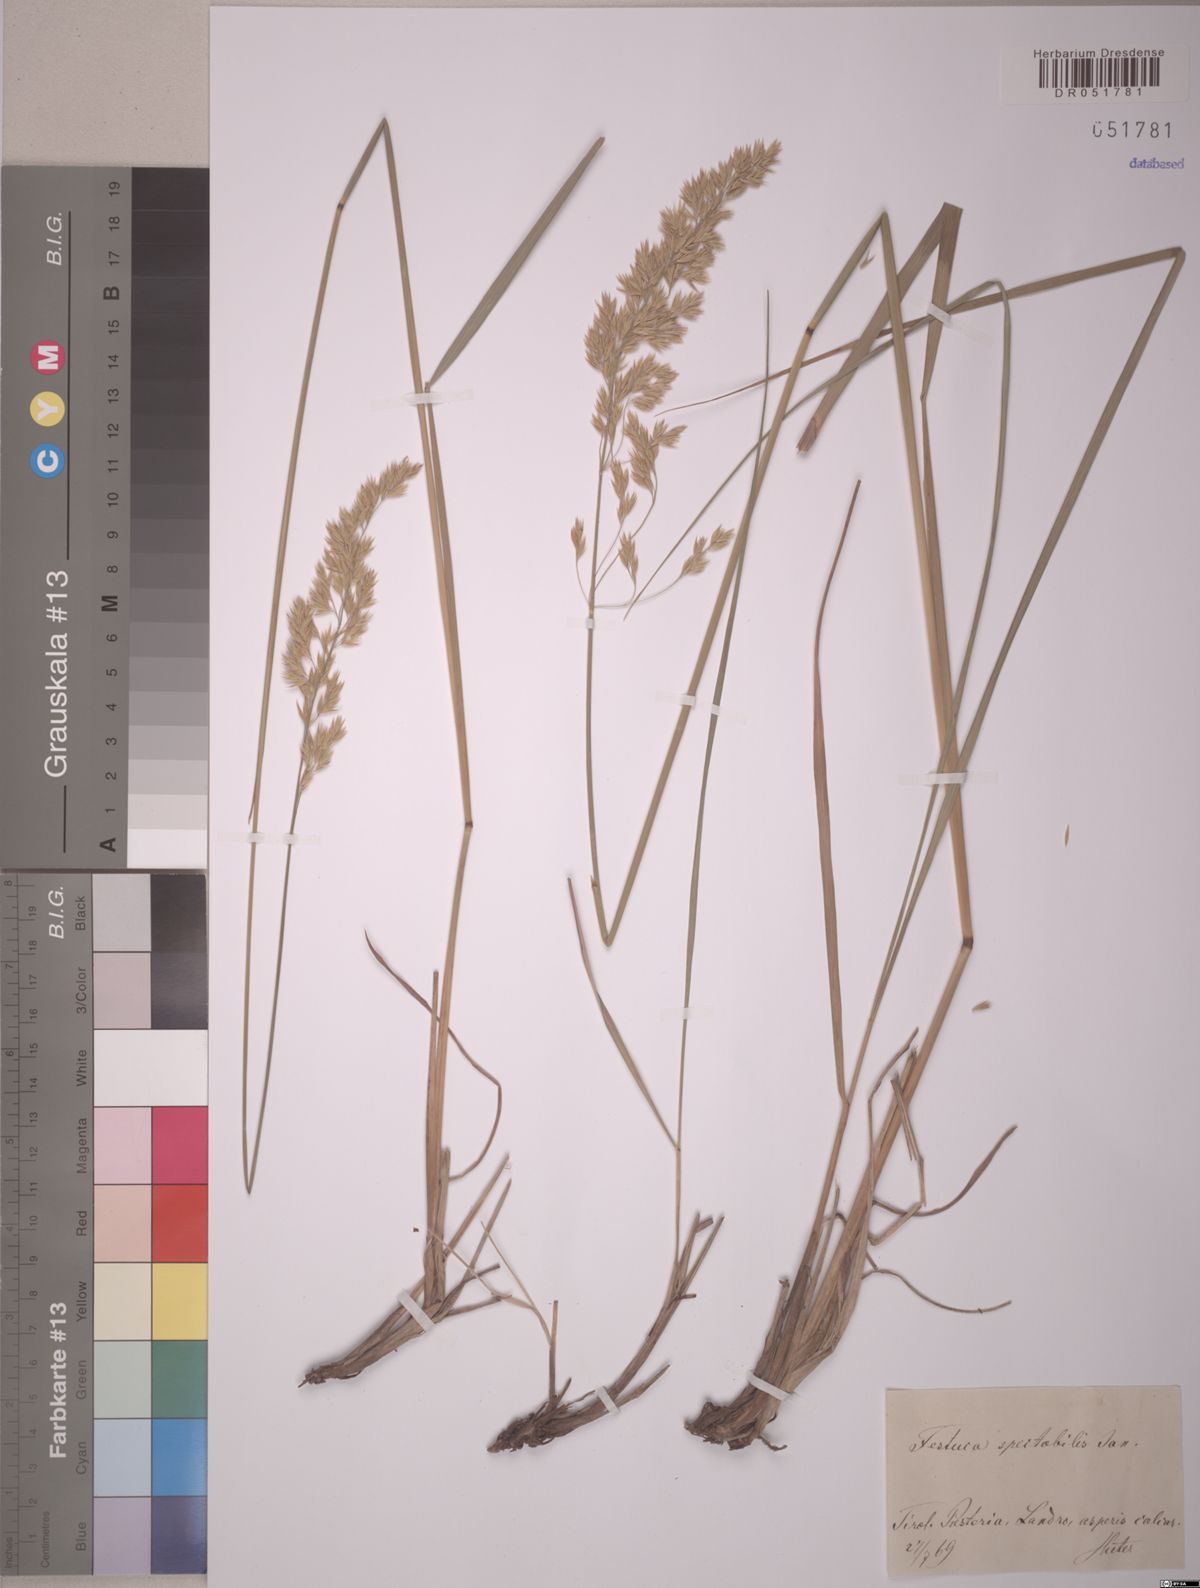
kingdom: Plantae
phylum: Tracheophyta
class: Liliopsida
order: Poales
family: Poaceae
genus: Festuca
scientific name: Festuca spectabilis
